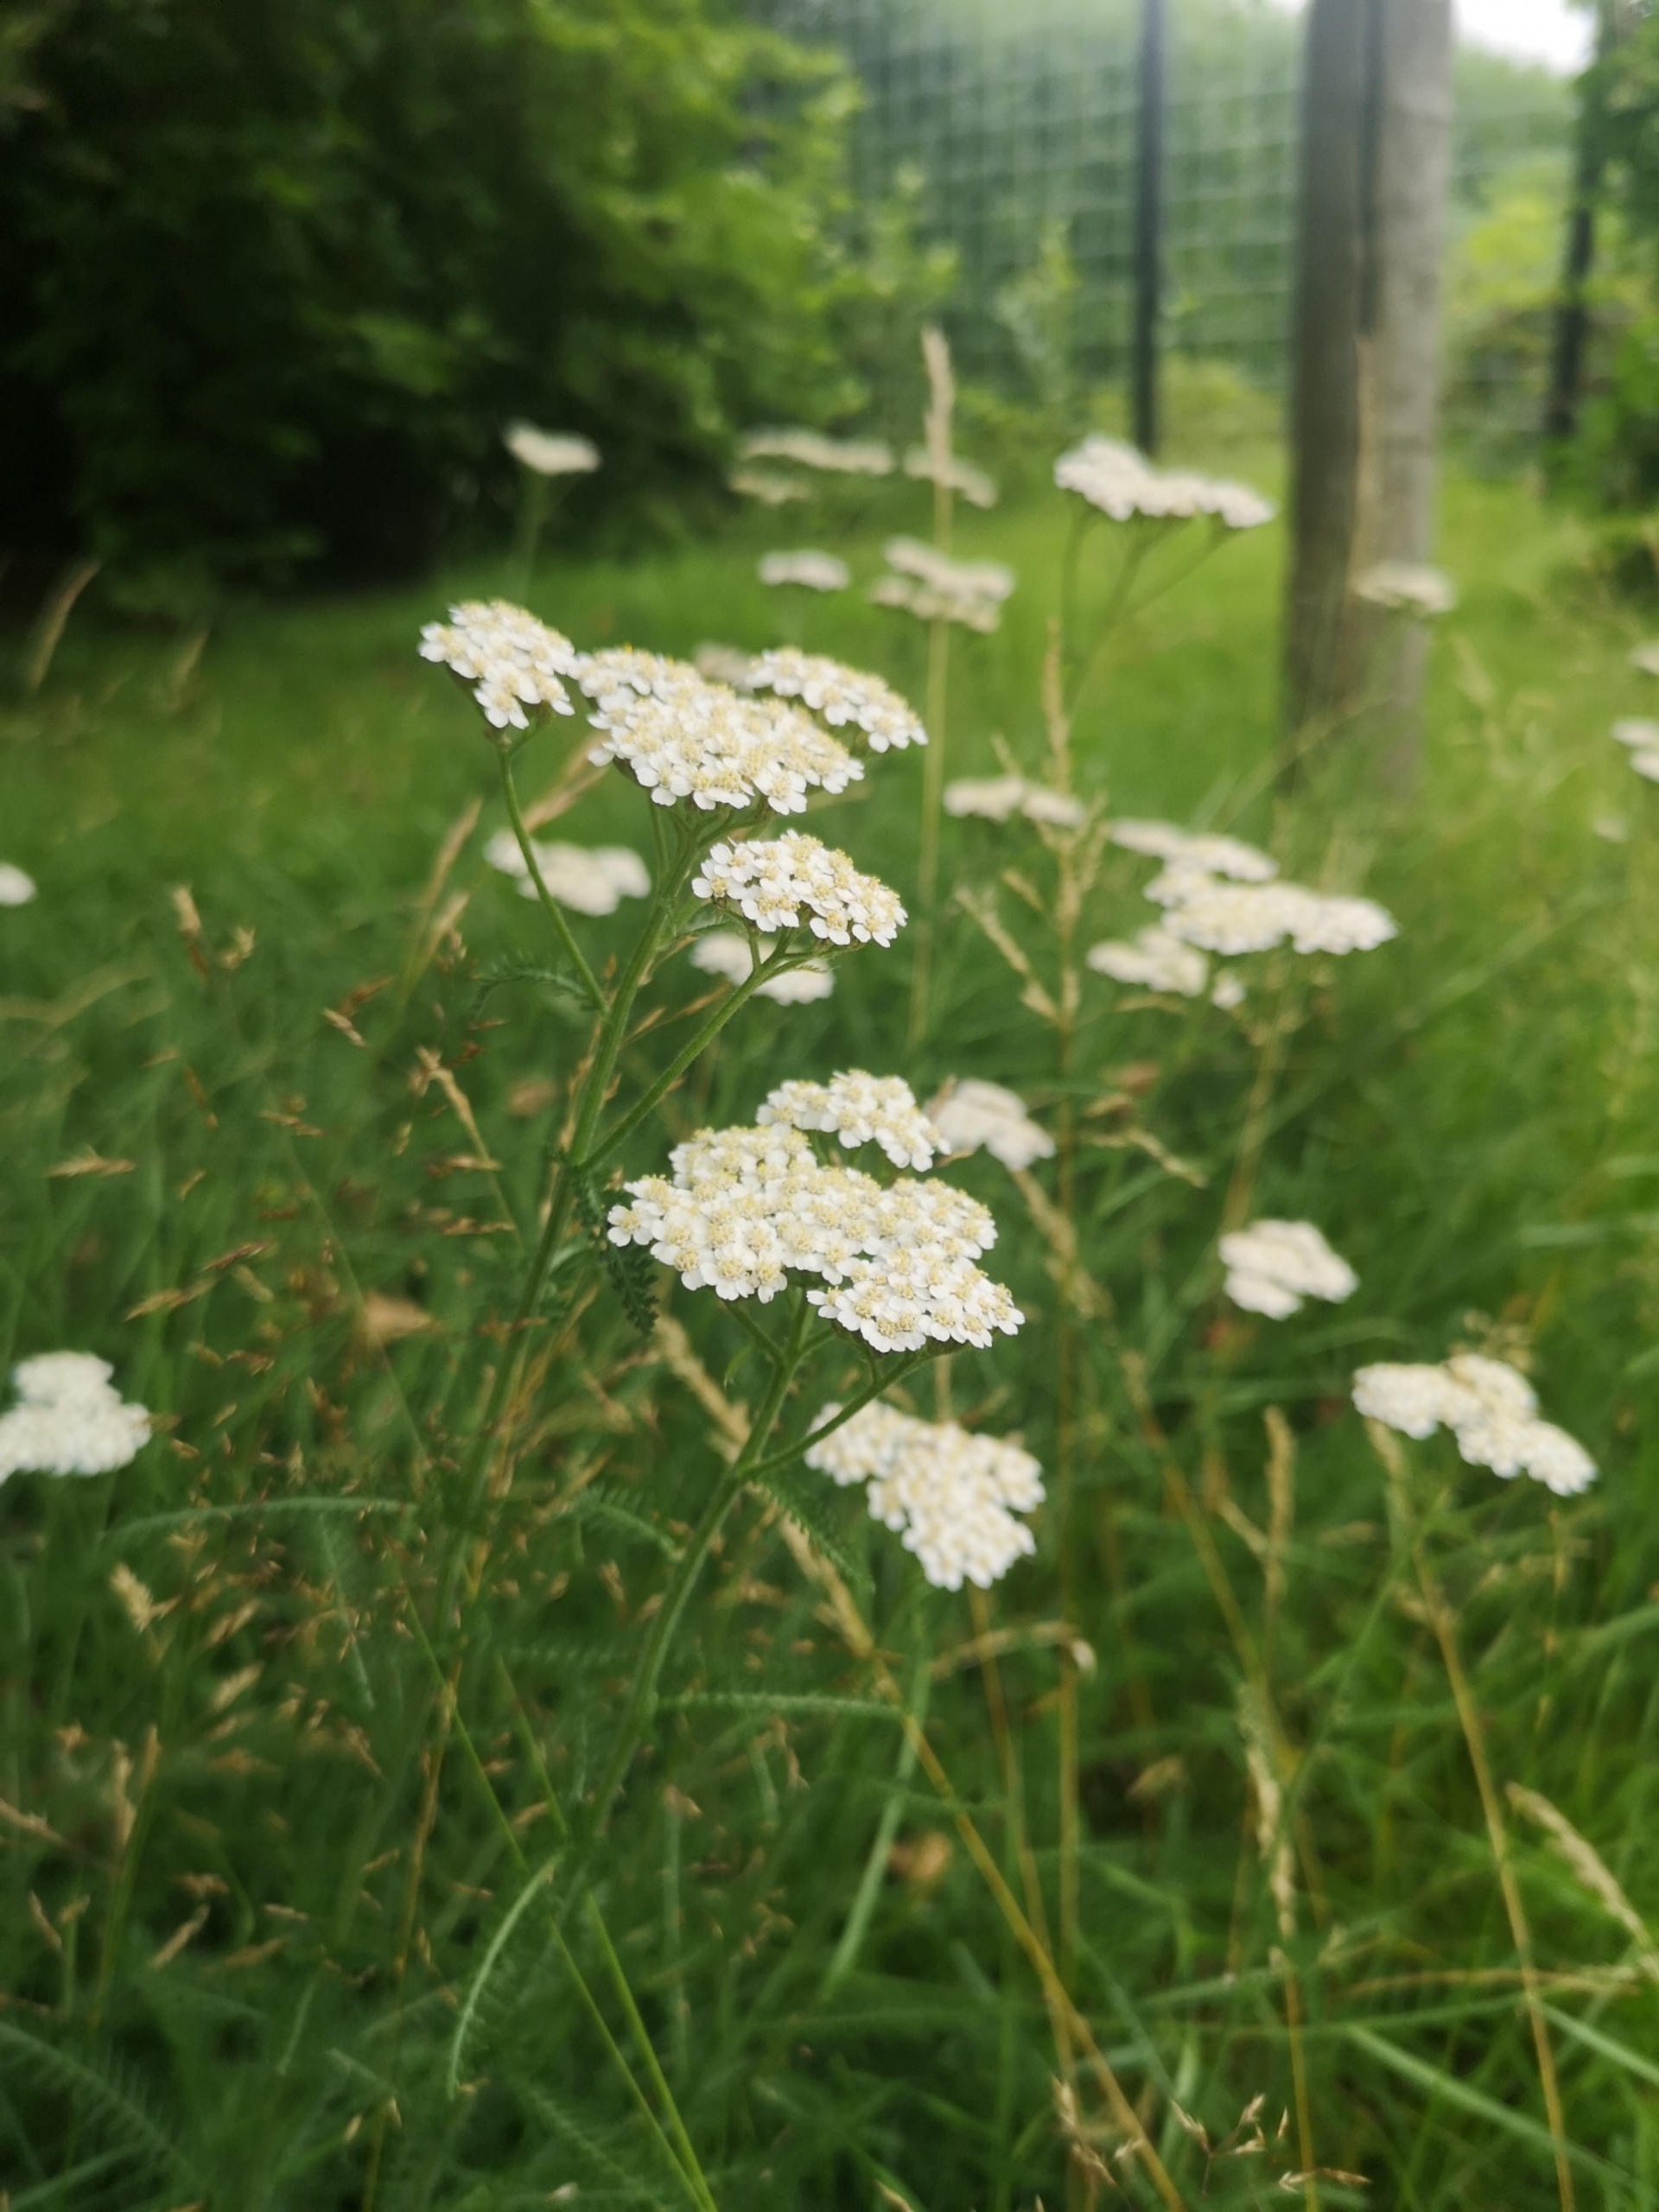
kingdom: Plantae
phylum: Tracheophyta
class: Magnoliopsida
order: Asterales
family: Asteraceae
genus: Achillea
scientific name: Achillea millefolium
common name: Almindelig røllike
